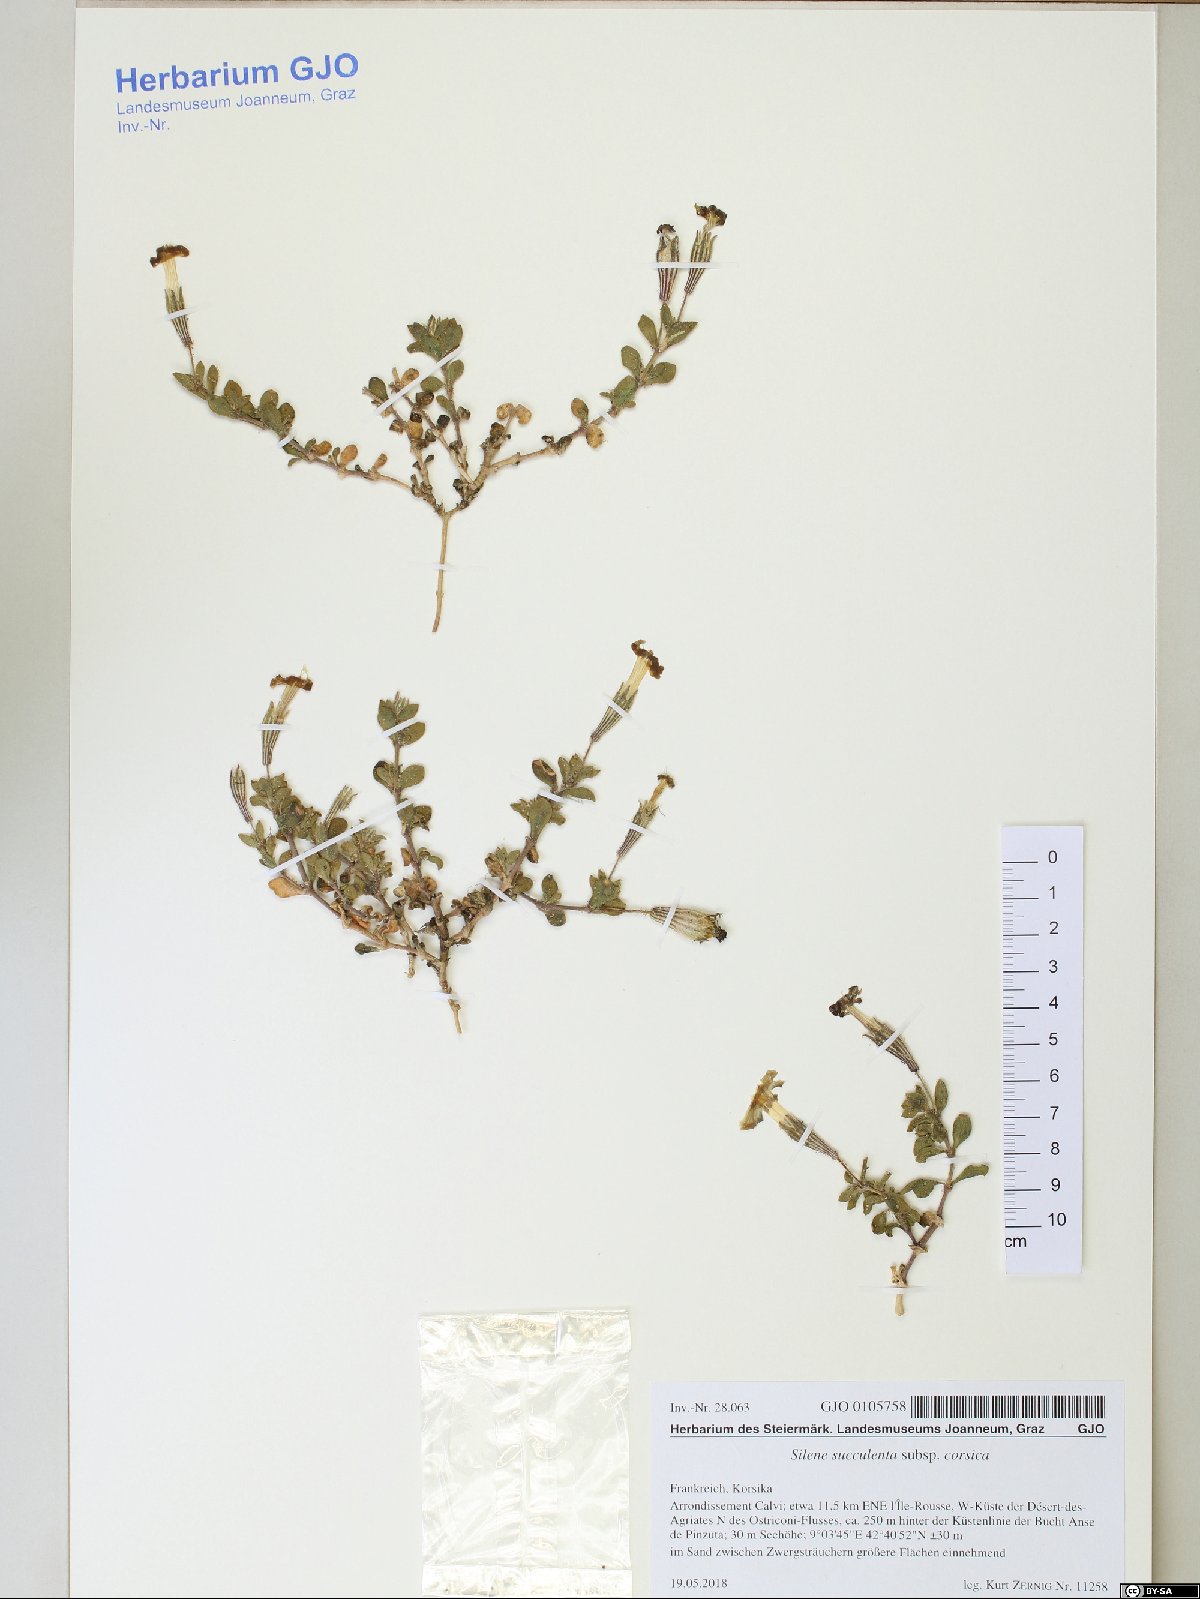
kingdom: Plantae
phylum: Tracheophyta
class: Magnoliopsida
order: Caryophyllales
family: Caryophyllaceae
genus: Silene
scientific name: Silene succulenta
